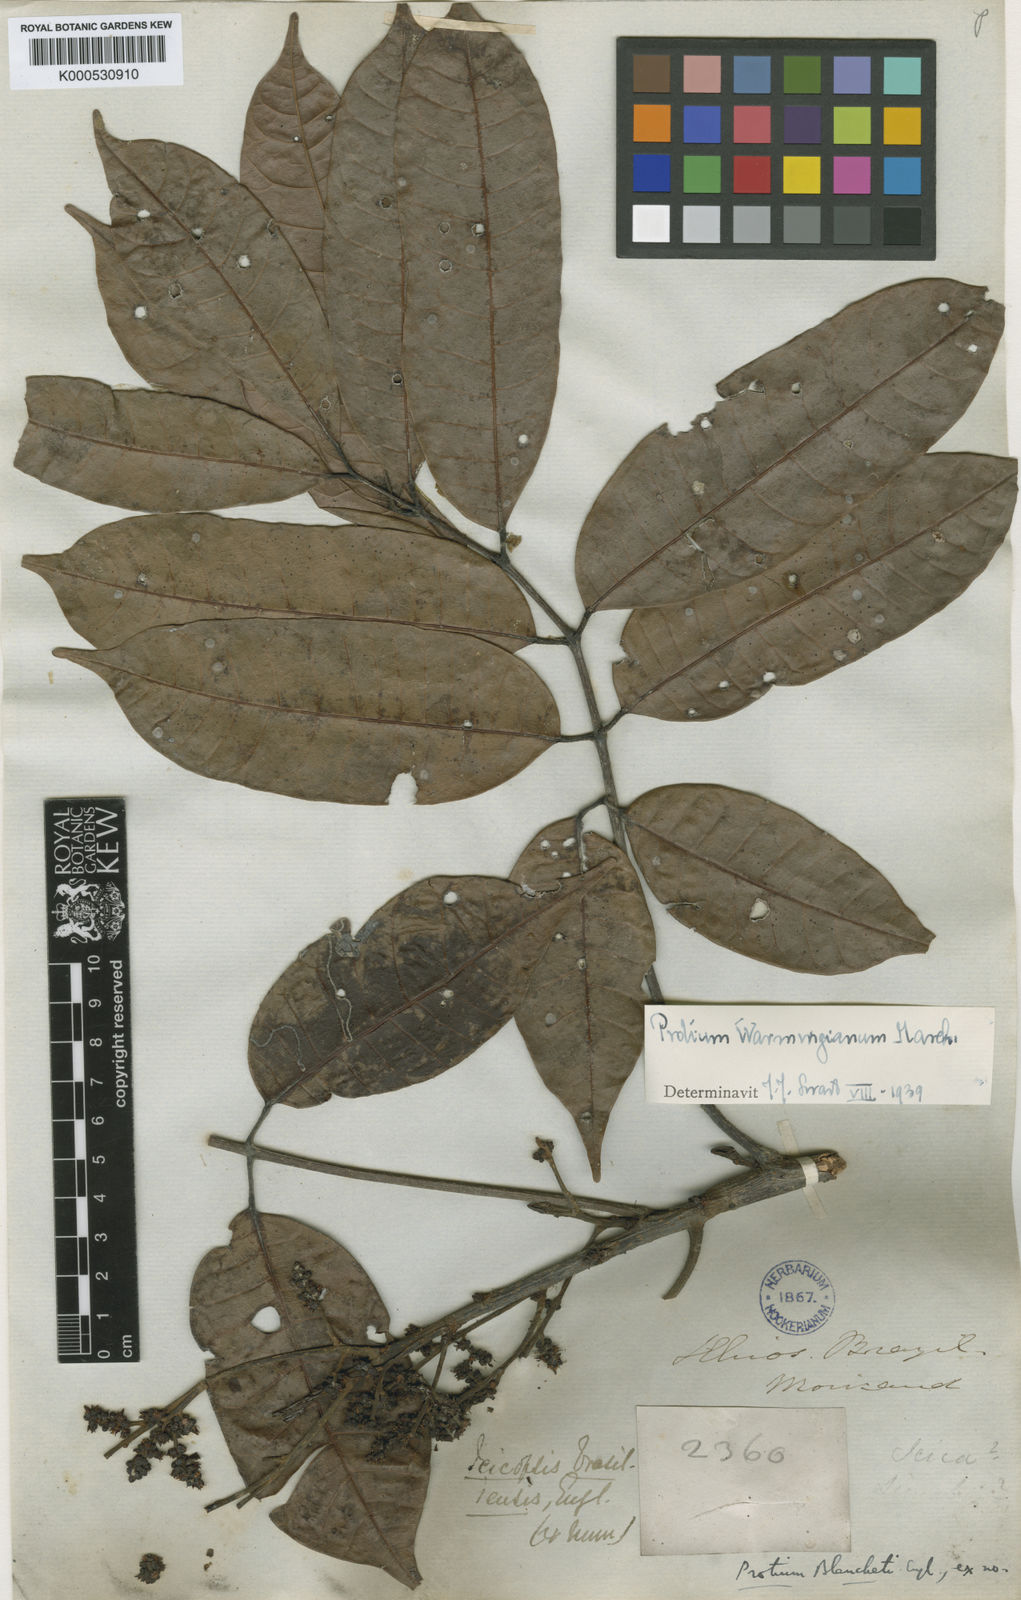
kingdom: Plantae
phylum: Tracheophyta
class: Magnoliopsida
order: Sapindales
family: Burseraceae
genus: Protium
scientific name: Protium warmingianum
